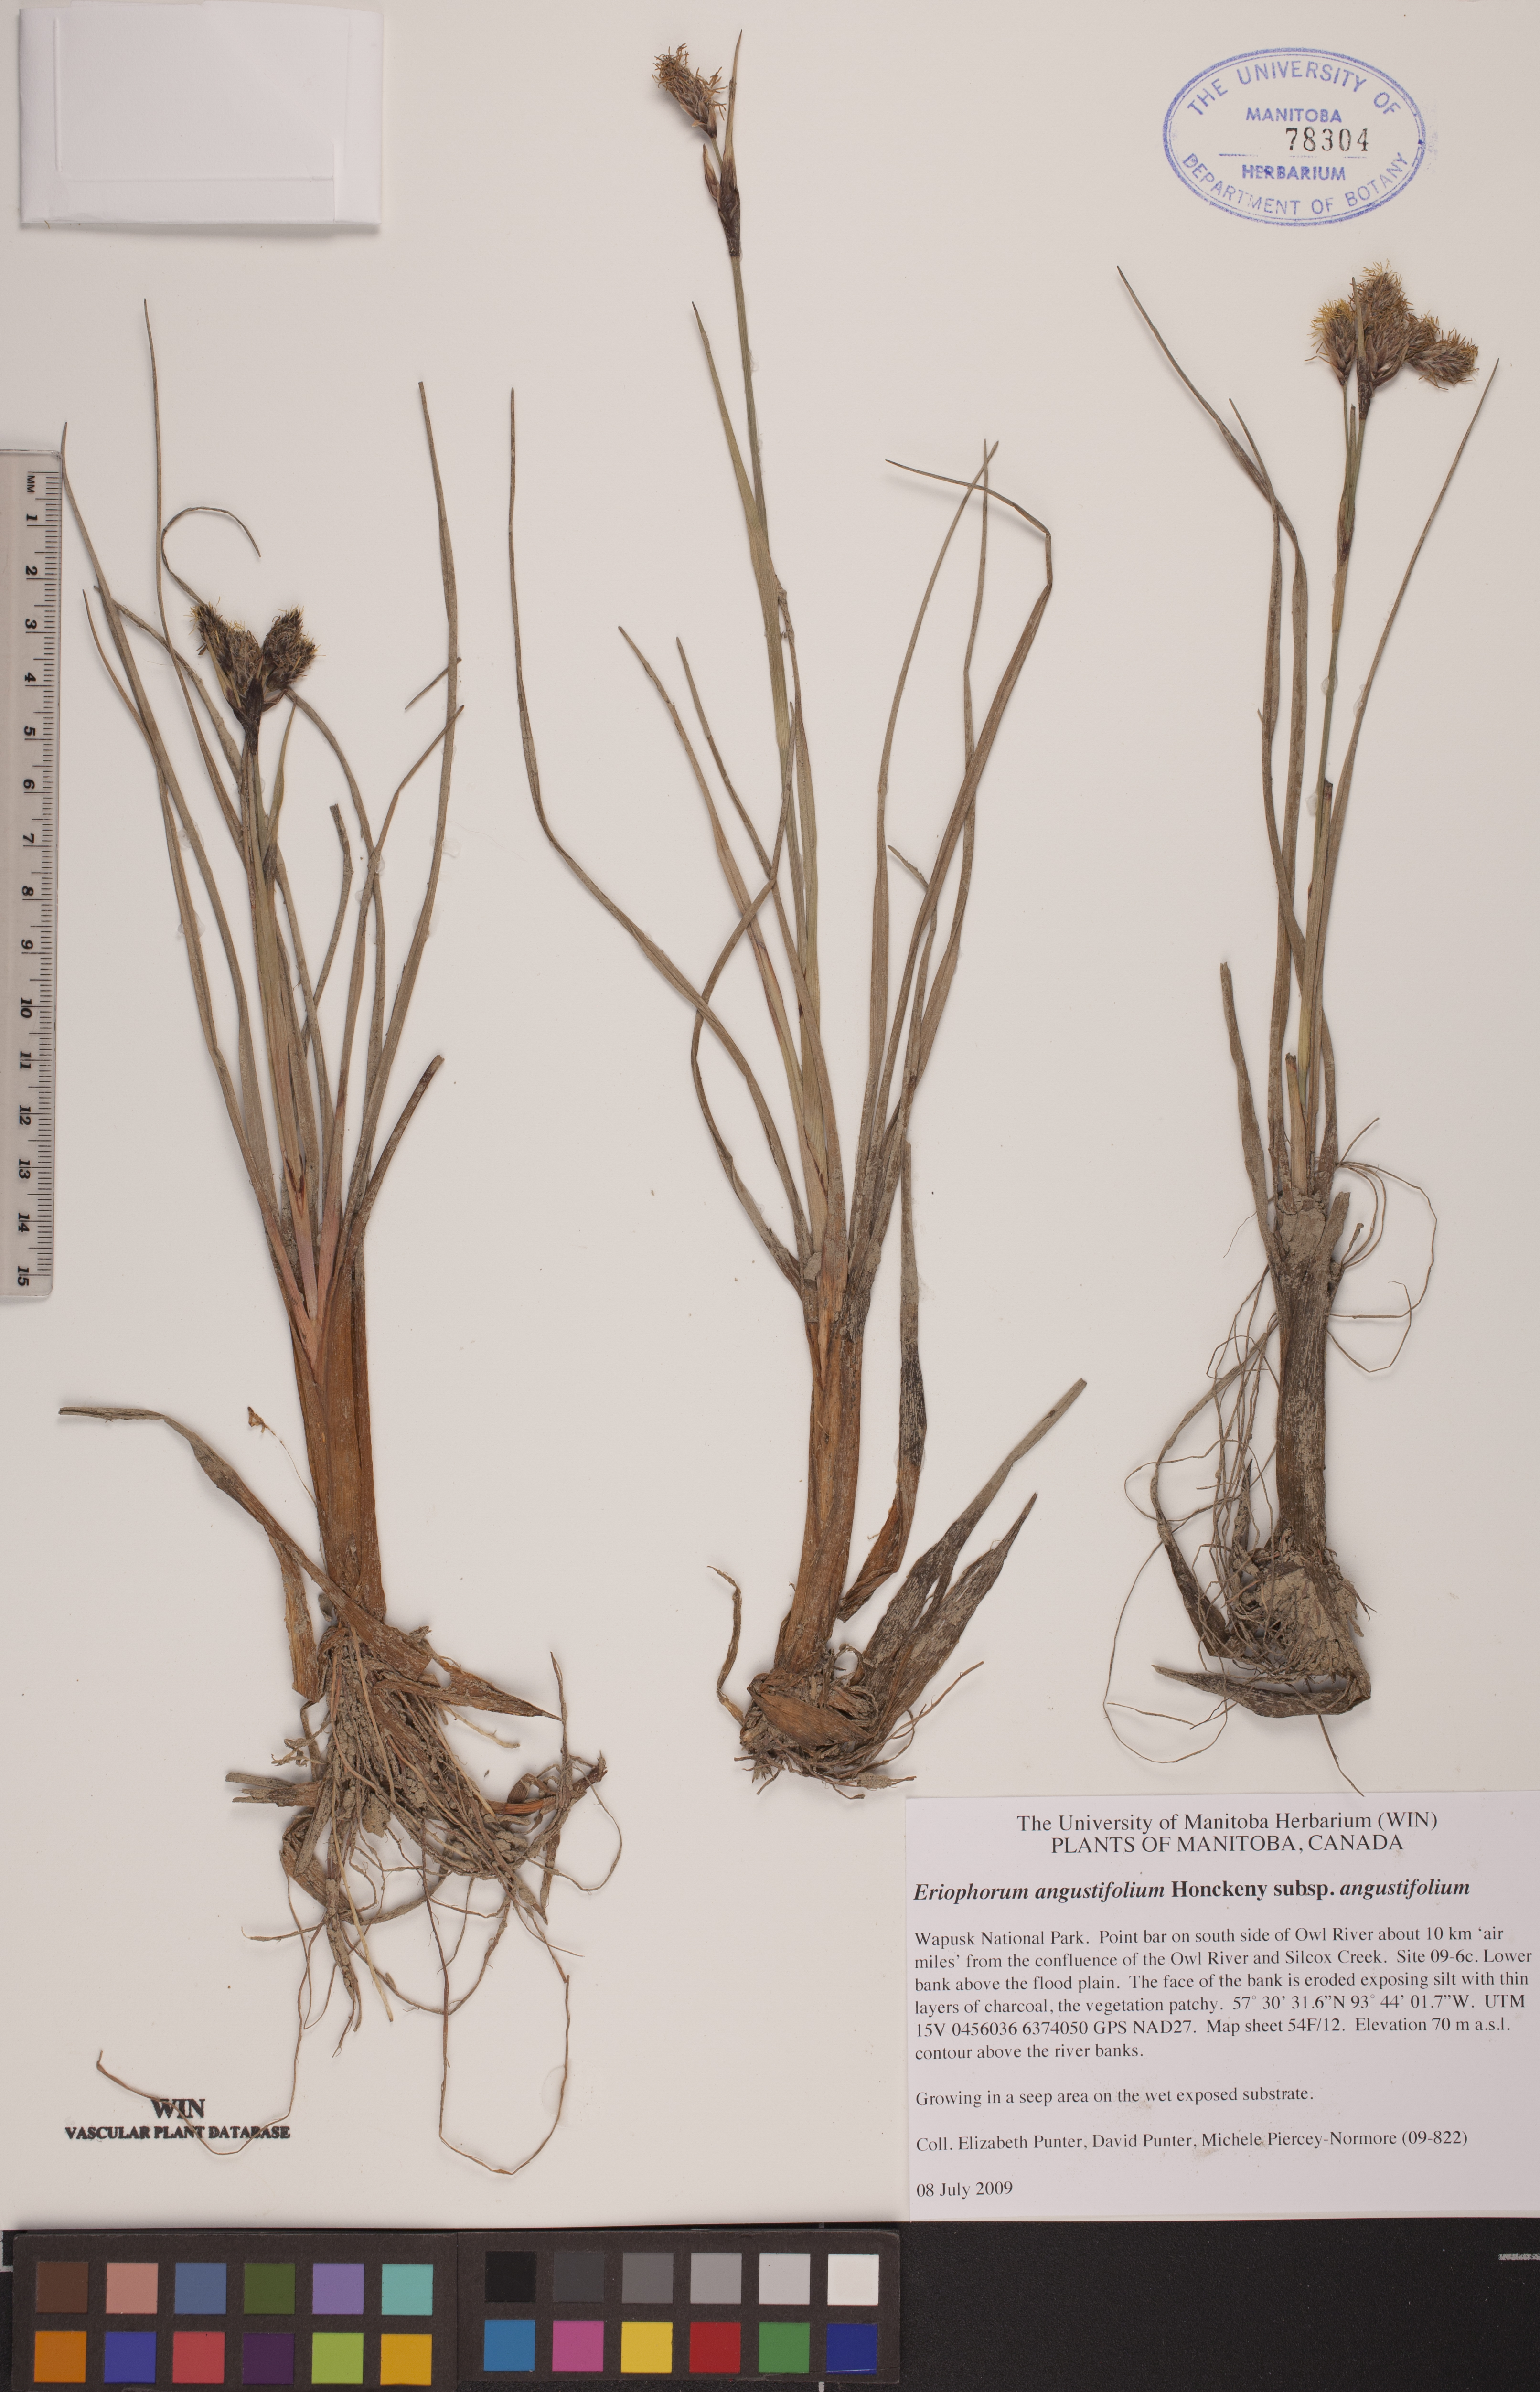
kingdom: Plantae
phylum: Tracheophyta
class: Liliopsida
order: Poales
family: Cyperaceae
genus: Eriophorum
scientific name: Eriophorum angustifolium
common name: Common cottongrass
